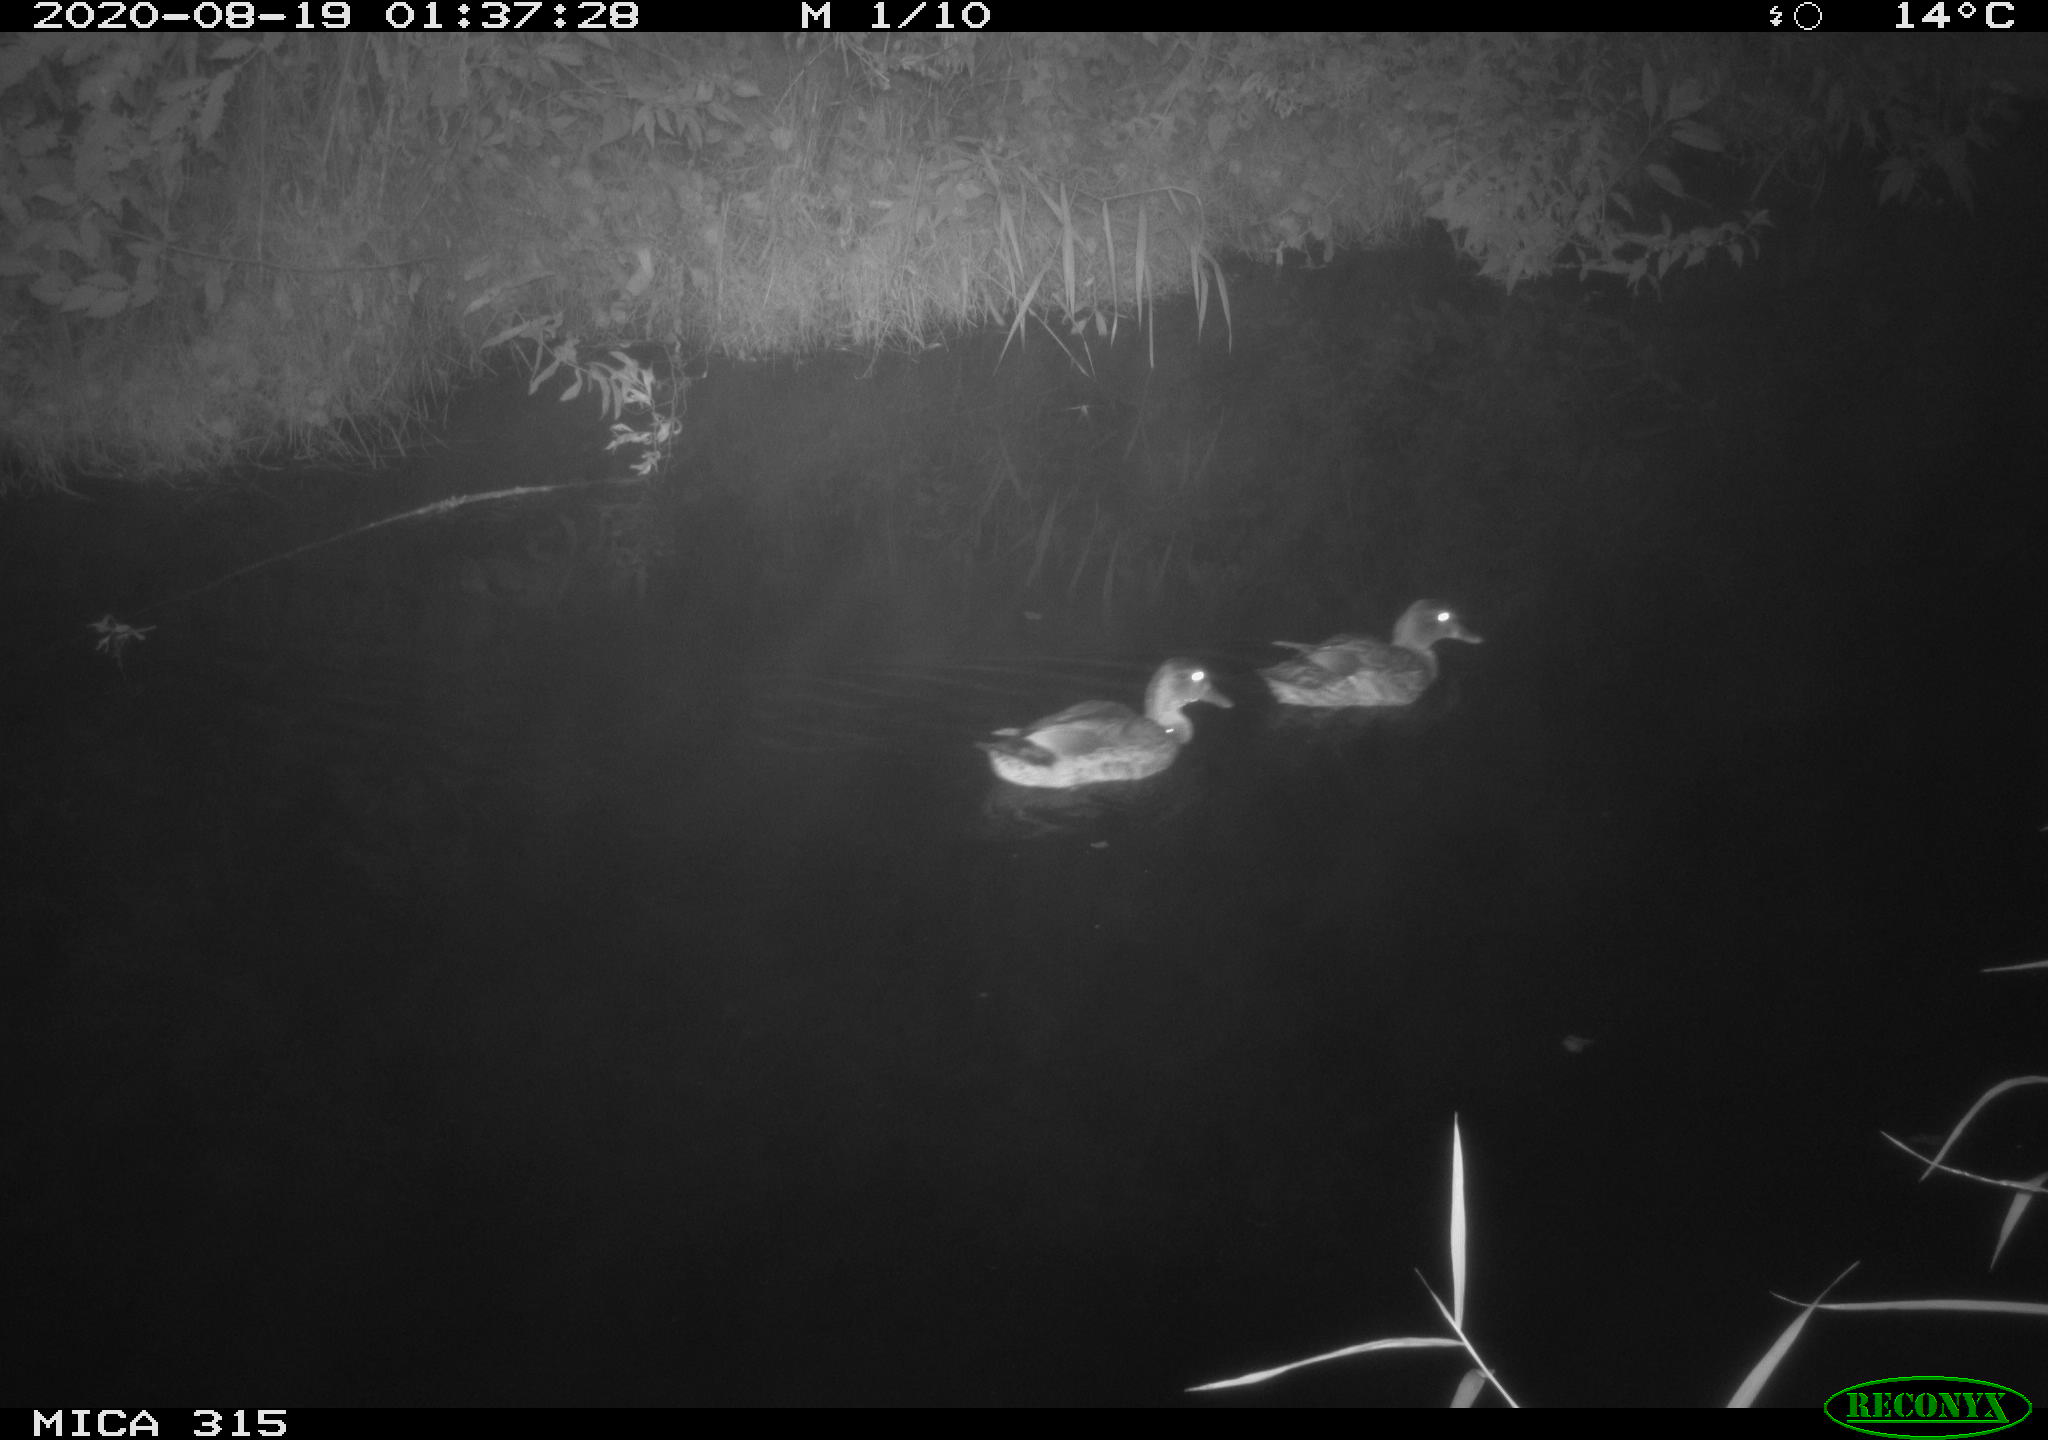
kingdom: Animalia
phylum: Chordata
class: Aves
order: Anseriformes
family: Anatidae
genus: Anas
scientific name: Anas platyrhynchos
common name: Mallard
